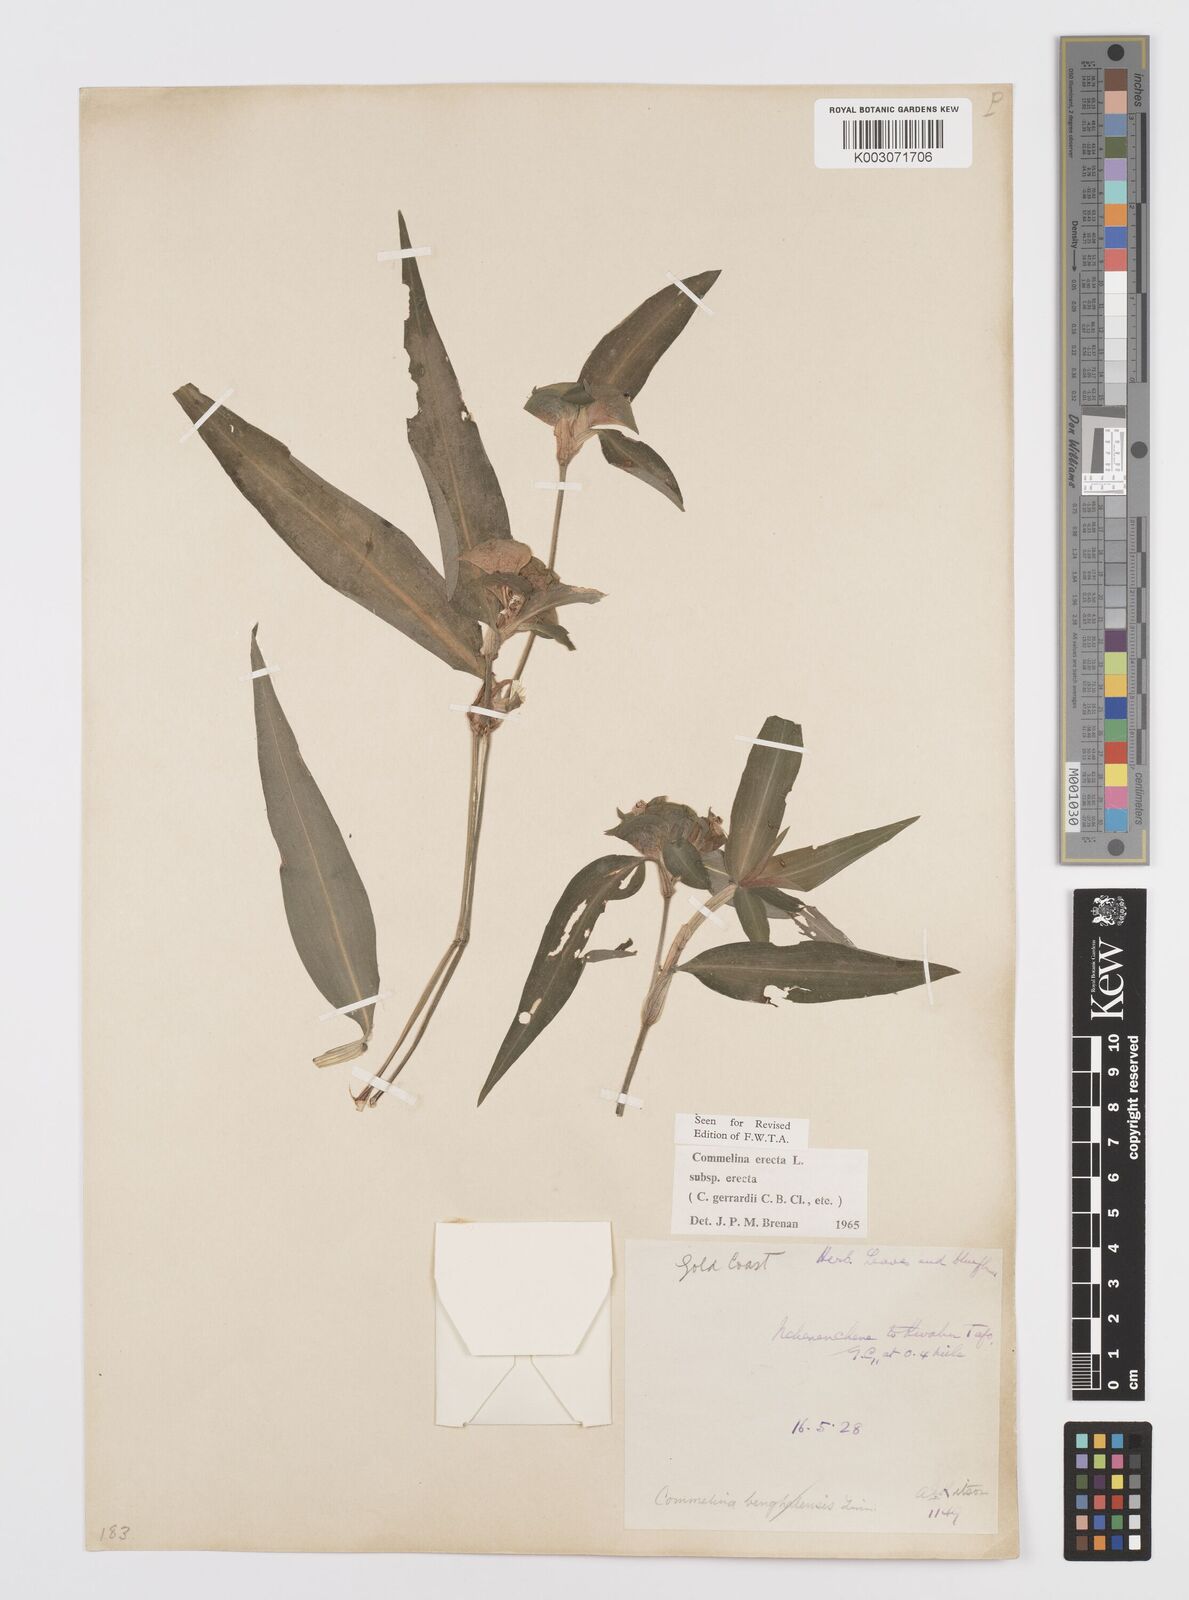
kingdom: Plantae
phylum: Tracheophyta
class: Liliopsida
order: Commelinales
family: Commelinaceae
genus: Commelina
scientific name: Commelina erecta
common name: Blousel blommetjie
